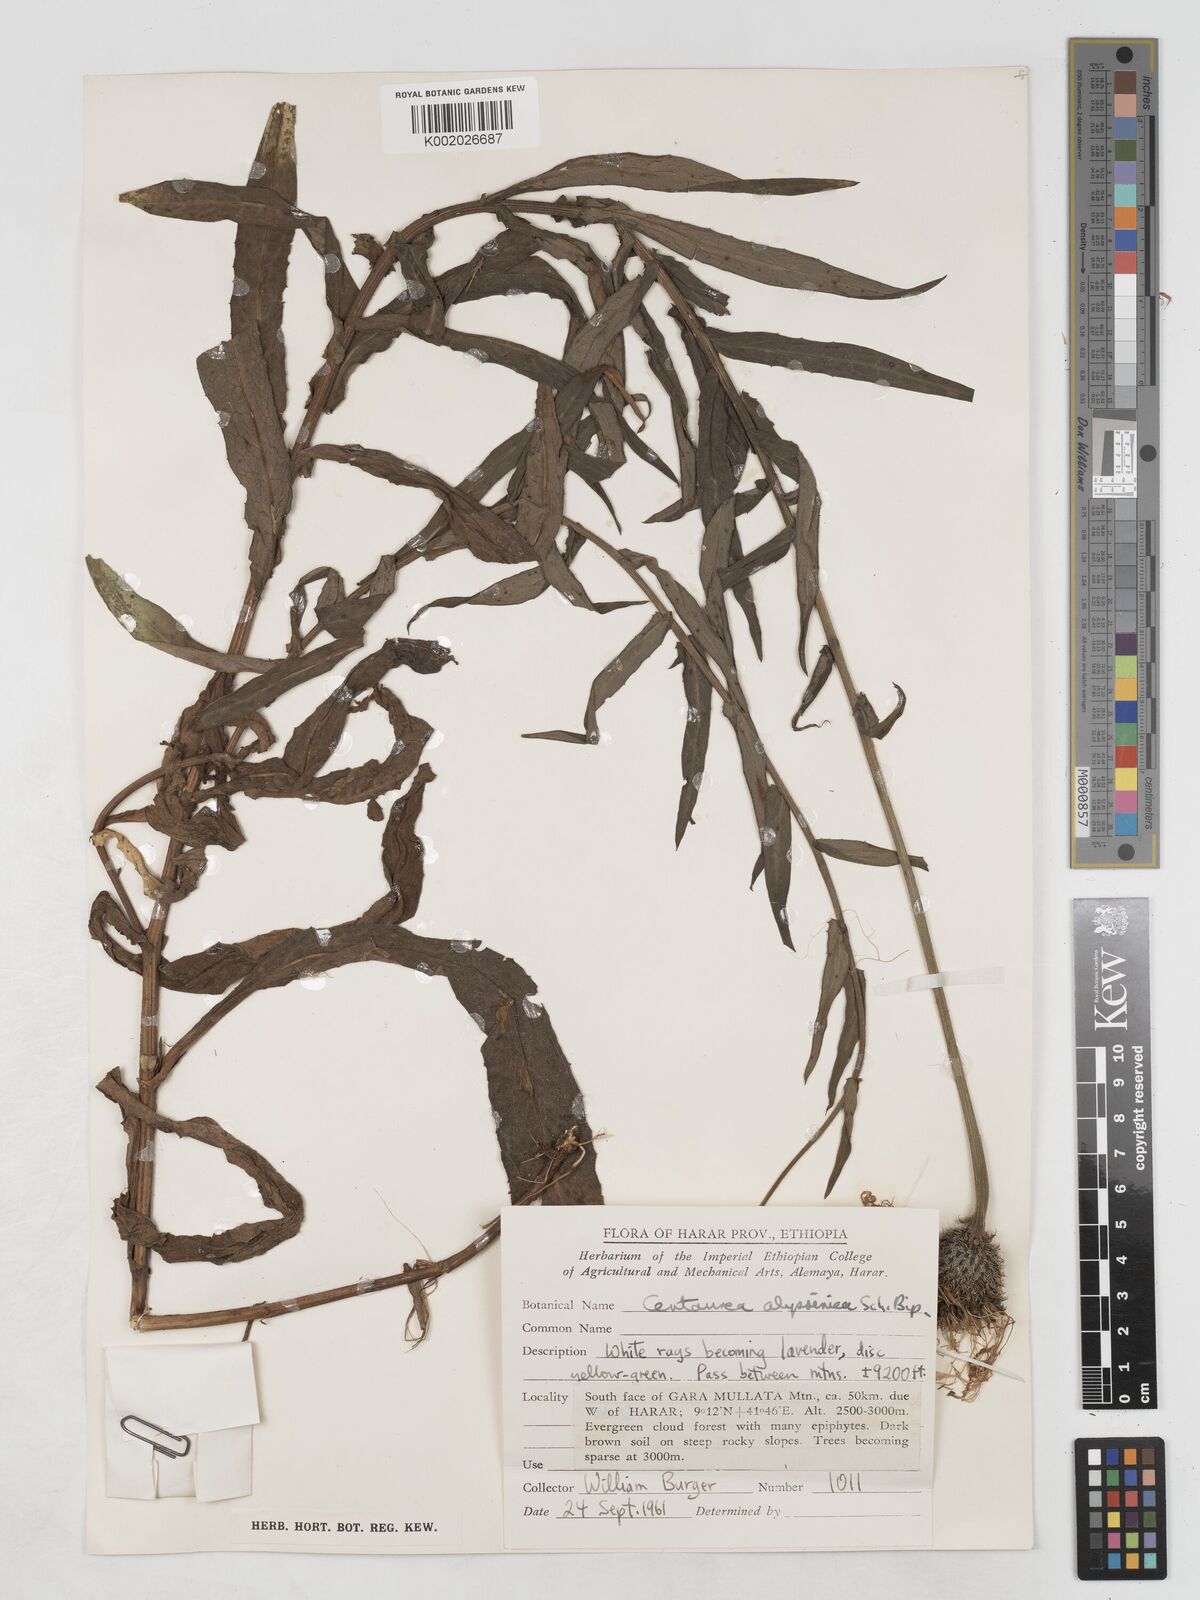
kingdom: Plantae
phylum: Tracheophyta
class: Magnoliopsida
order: Asterales
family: Asteraceae
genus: Plectocephalus
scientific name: Plectocephalus
